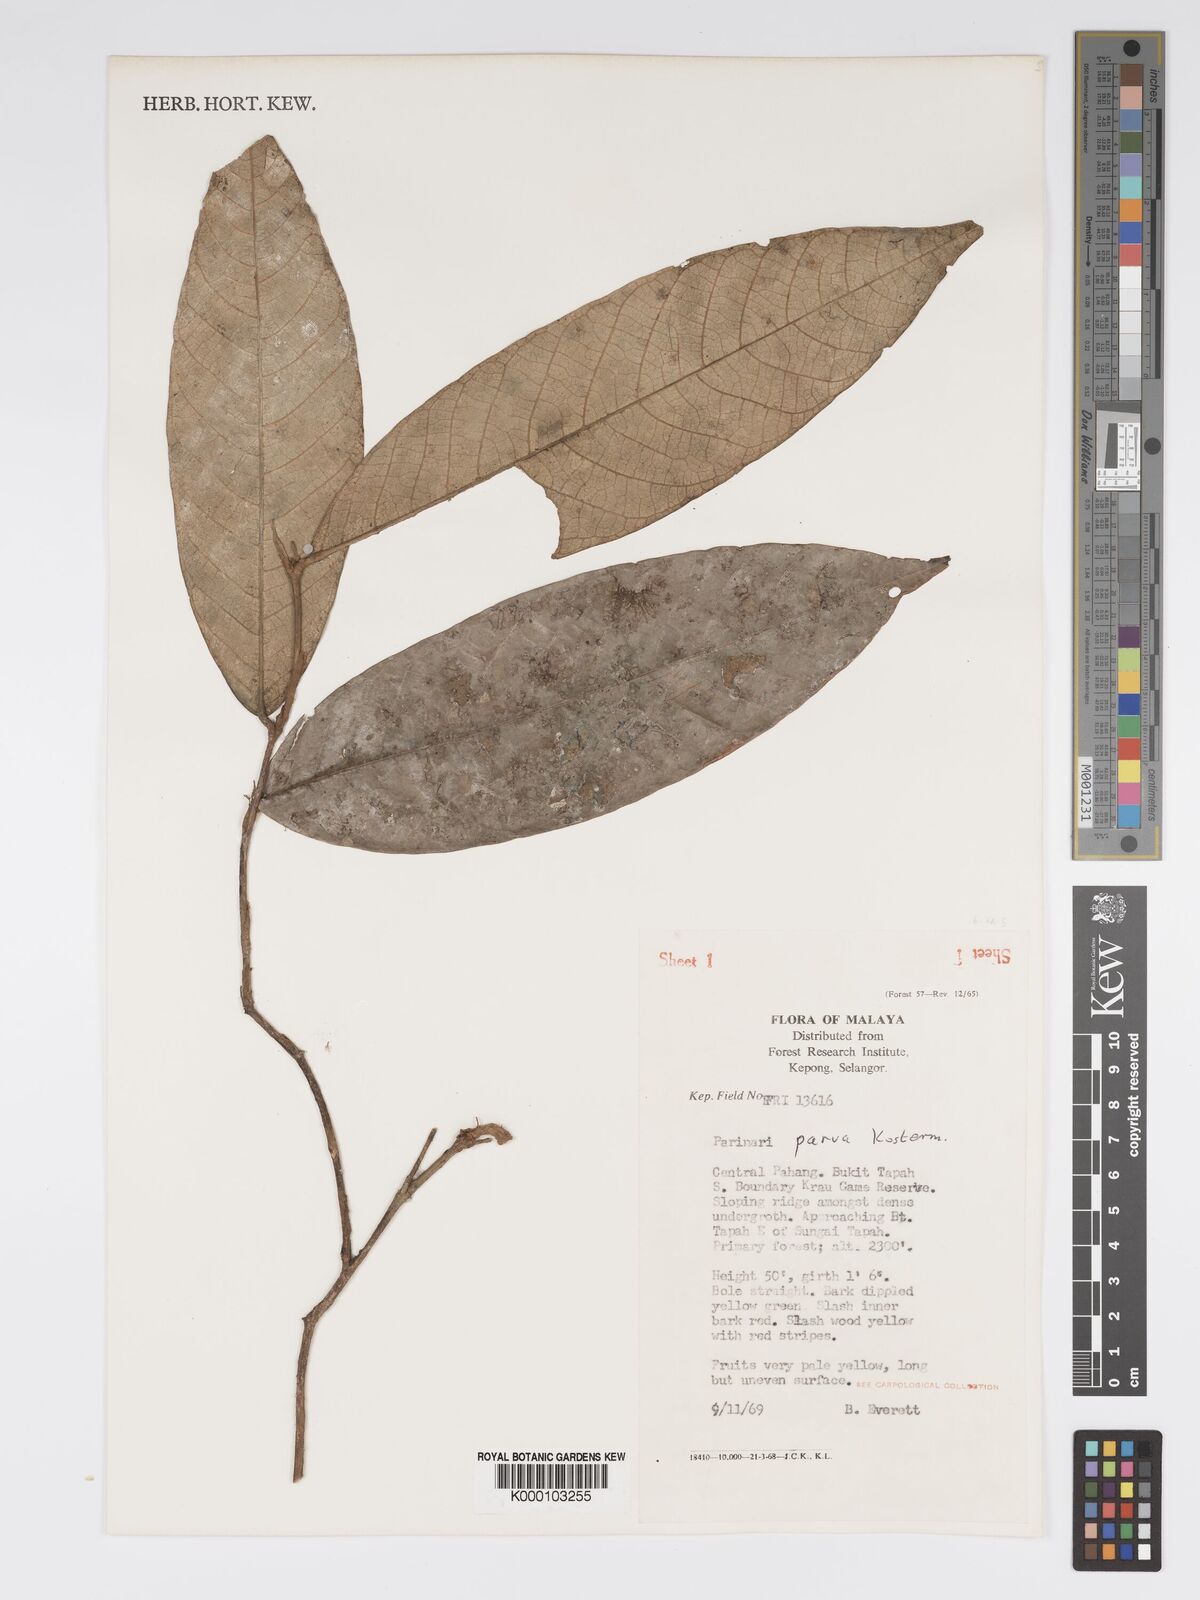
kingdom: Plantae
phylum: Tracheophyta
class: Magnoliopsida
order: Malpighiales
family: Chrysobalanaceae
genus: Parinari
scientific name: Parinari parva
